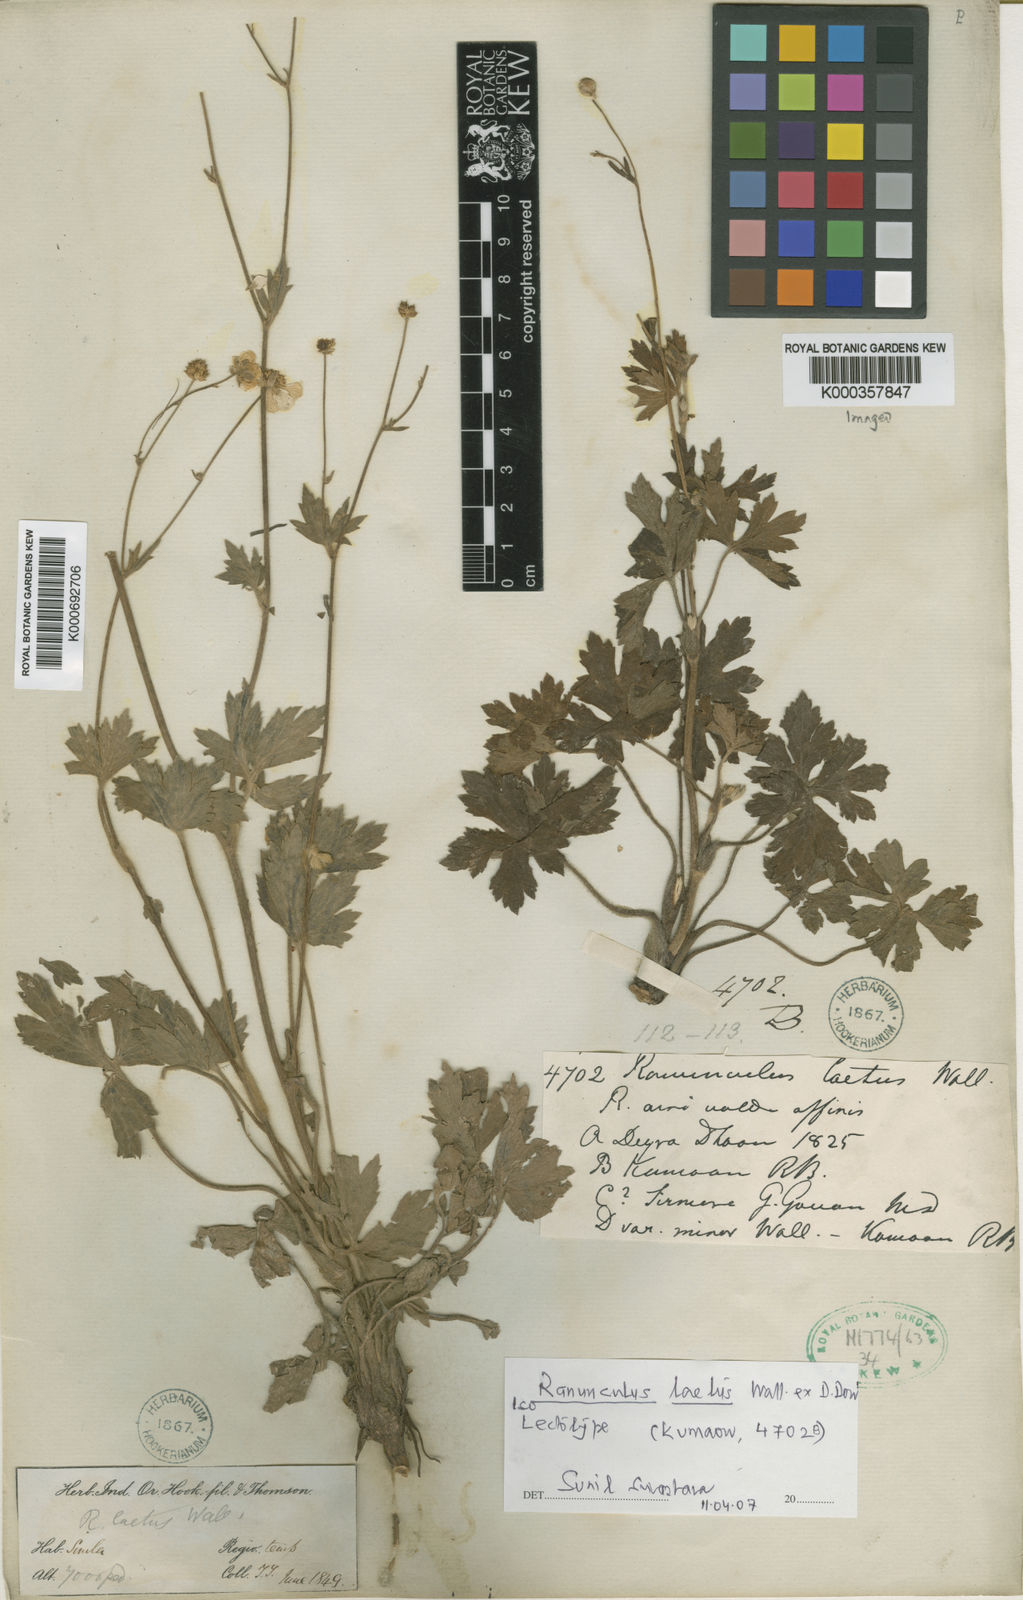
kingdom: Plantae
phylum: Tracheophyta
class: Magnoliopsida
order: Ranunculales
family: Ranunculaceae
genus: Ranunculus
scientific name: Ranunculus
